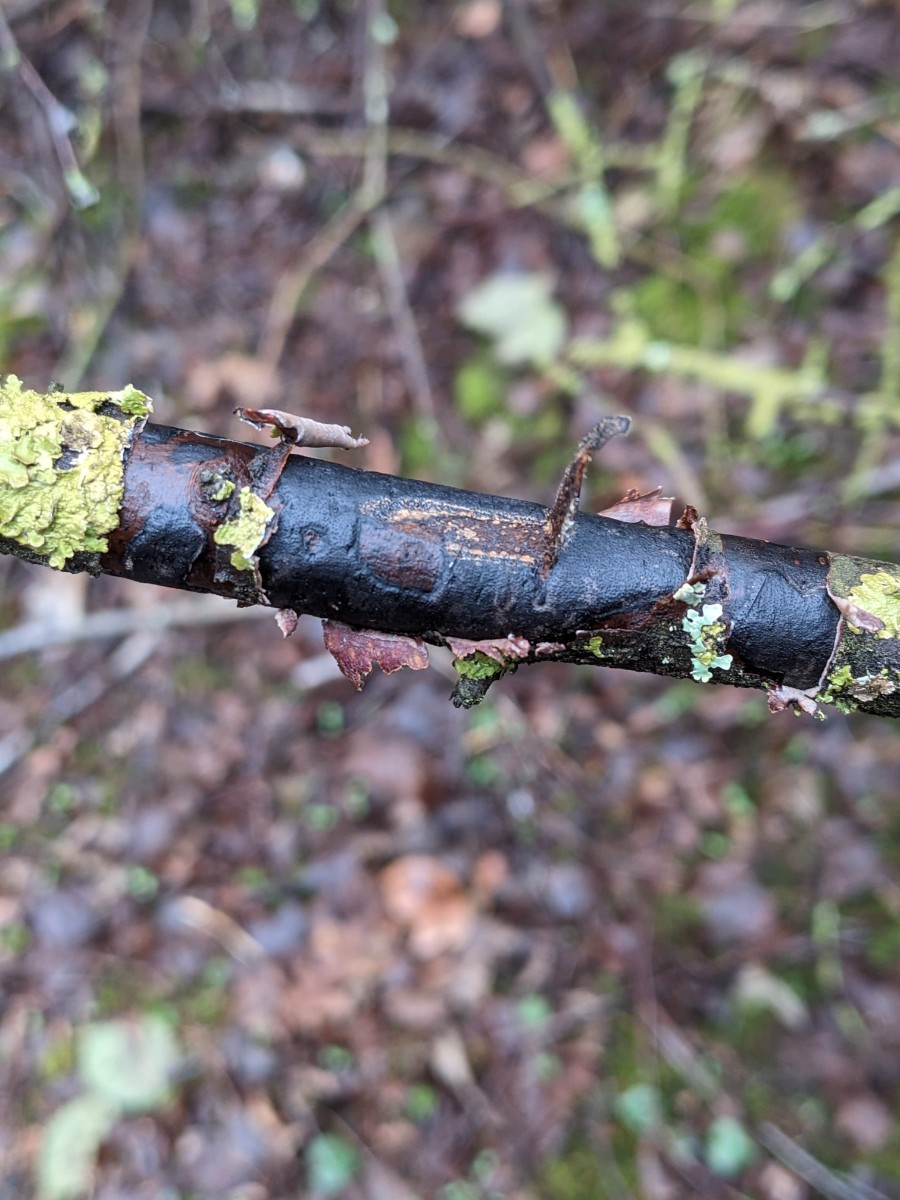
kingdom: Fungi
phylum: Ascomycota
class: Sordariomycetes
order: Xylariales
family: Diatrypaceae
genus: Diatrype
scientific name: Diatrype decorticata
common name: barksprænger-kulskorpe
